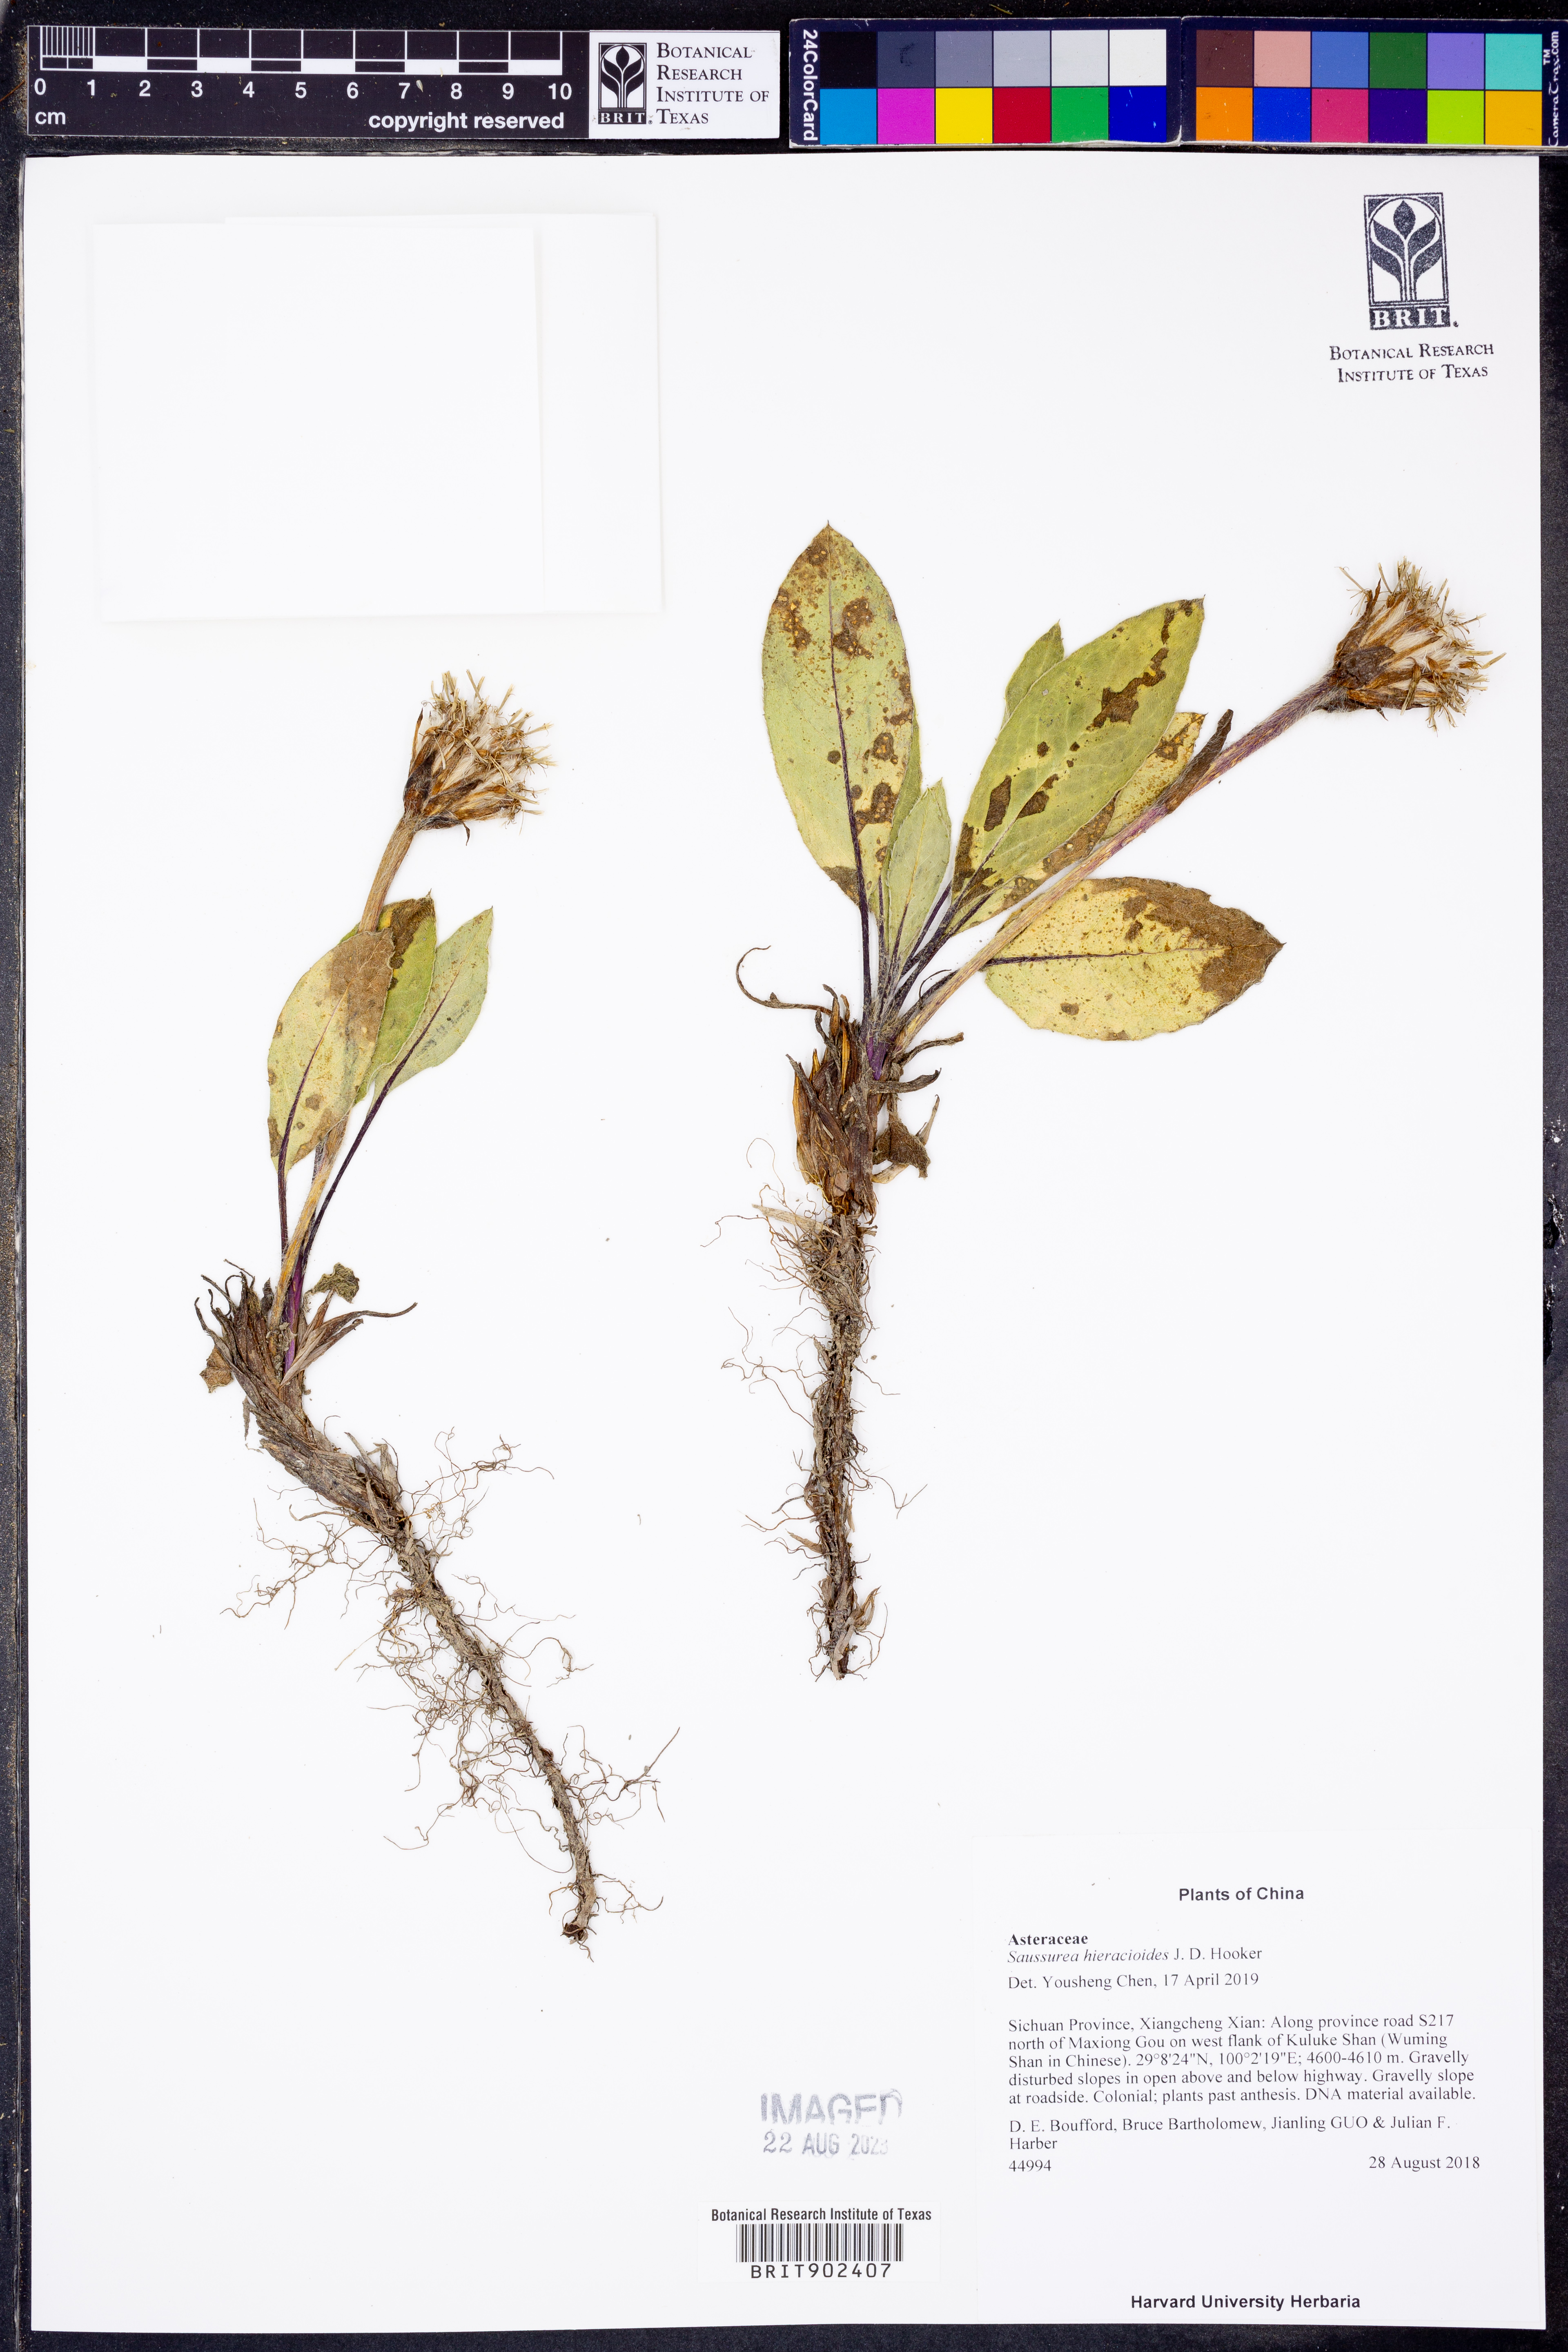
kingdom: Plantae
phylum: Tracheophyta
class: Magnoliopsida
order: Asterales
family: Asteraceae
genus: Saussurea
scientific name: Saussurea
